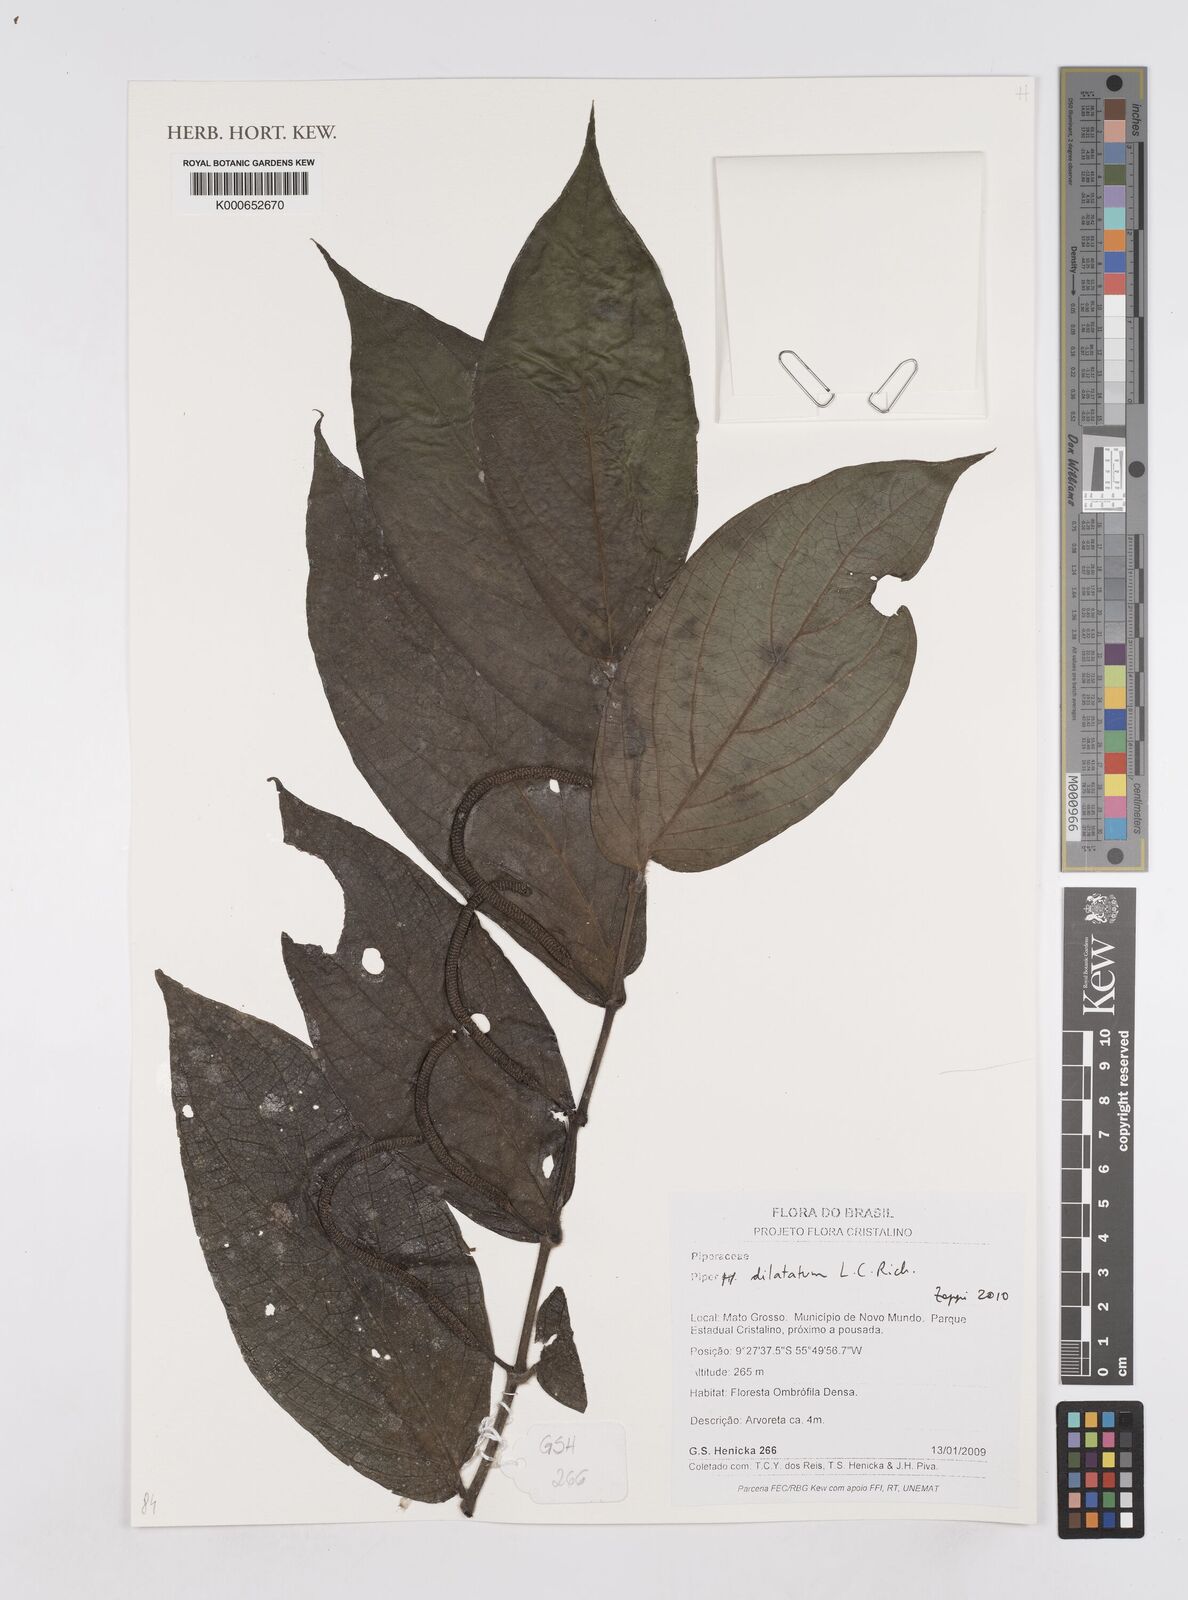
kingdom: Plantae
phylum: Tracheophyta
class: Magnoliopsida
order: Piperales
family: Piperaceae
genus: Piper
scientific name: Piper dilatatum
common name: Higuillo
